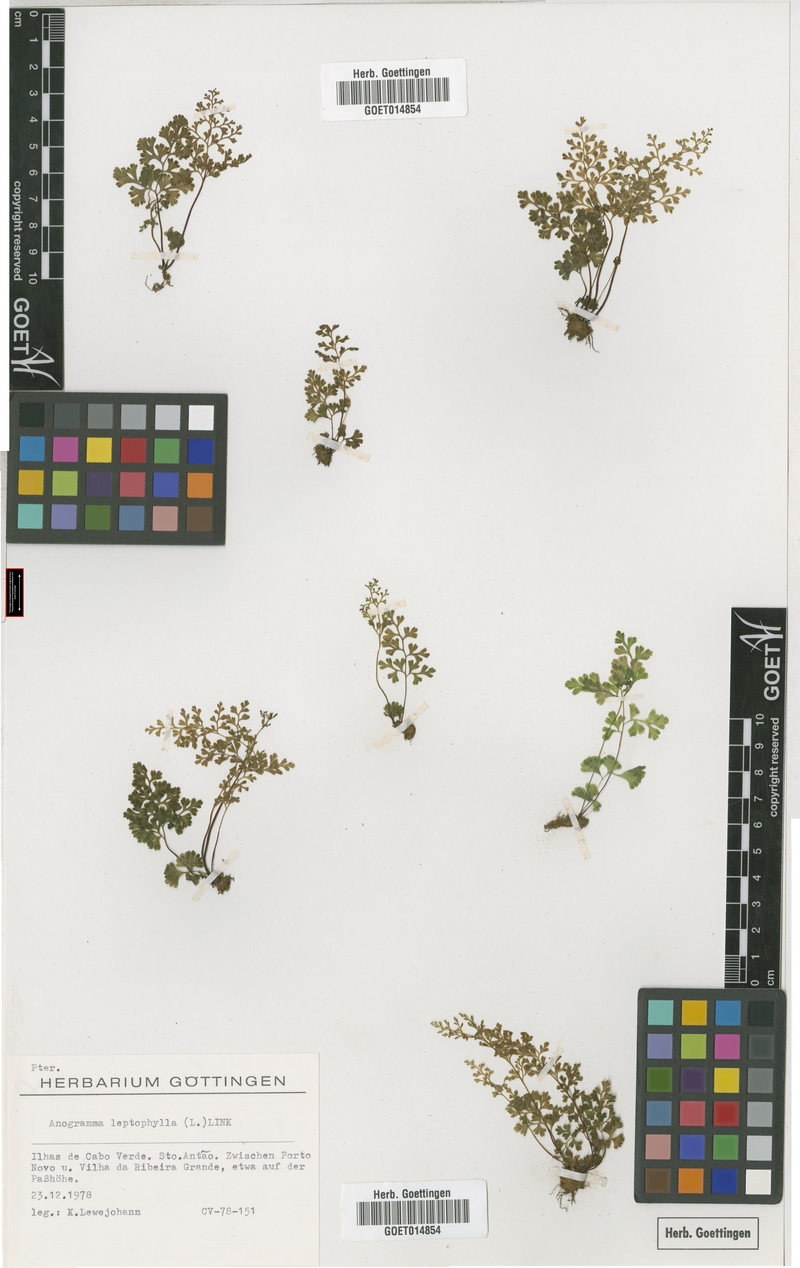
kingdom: Plantae
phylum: Tracheophyta
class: Polypodiopsida
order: Polypodiales
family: Pteridaceae
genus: Anogramma
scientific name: Anogramma leptophylla
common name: Jersey fern
